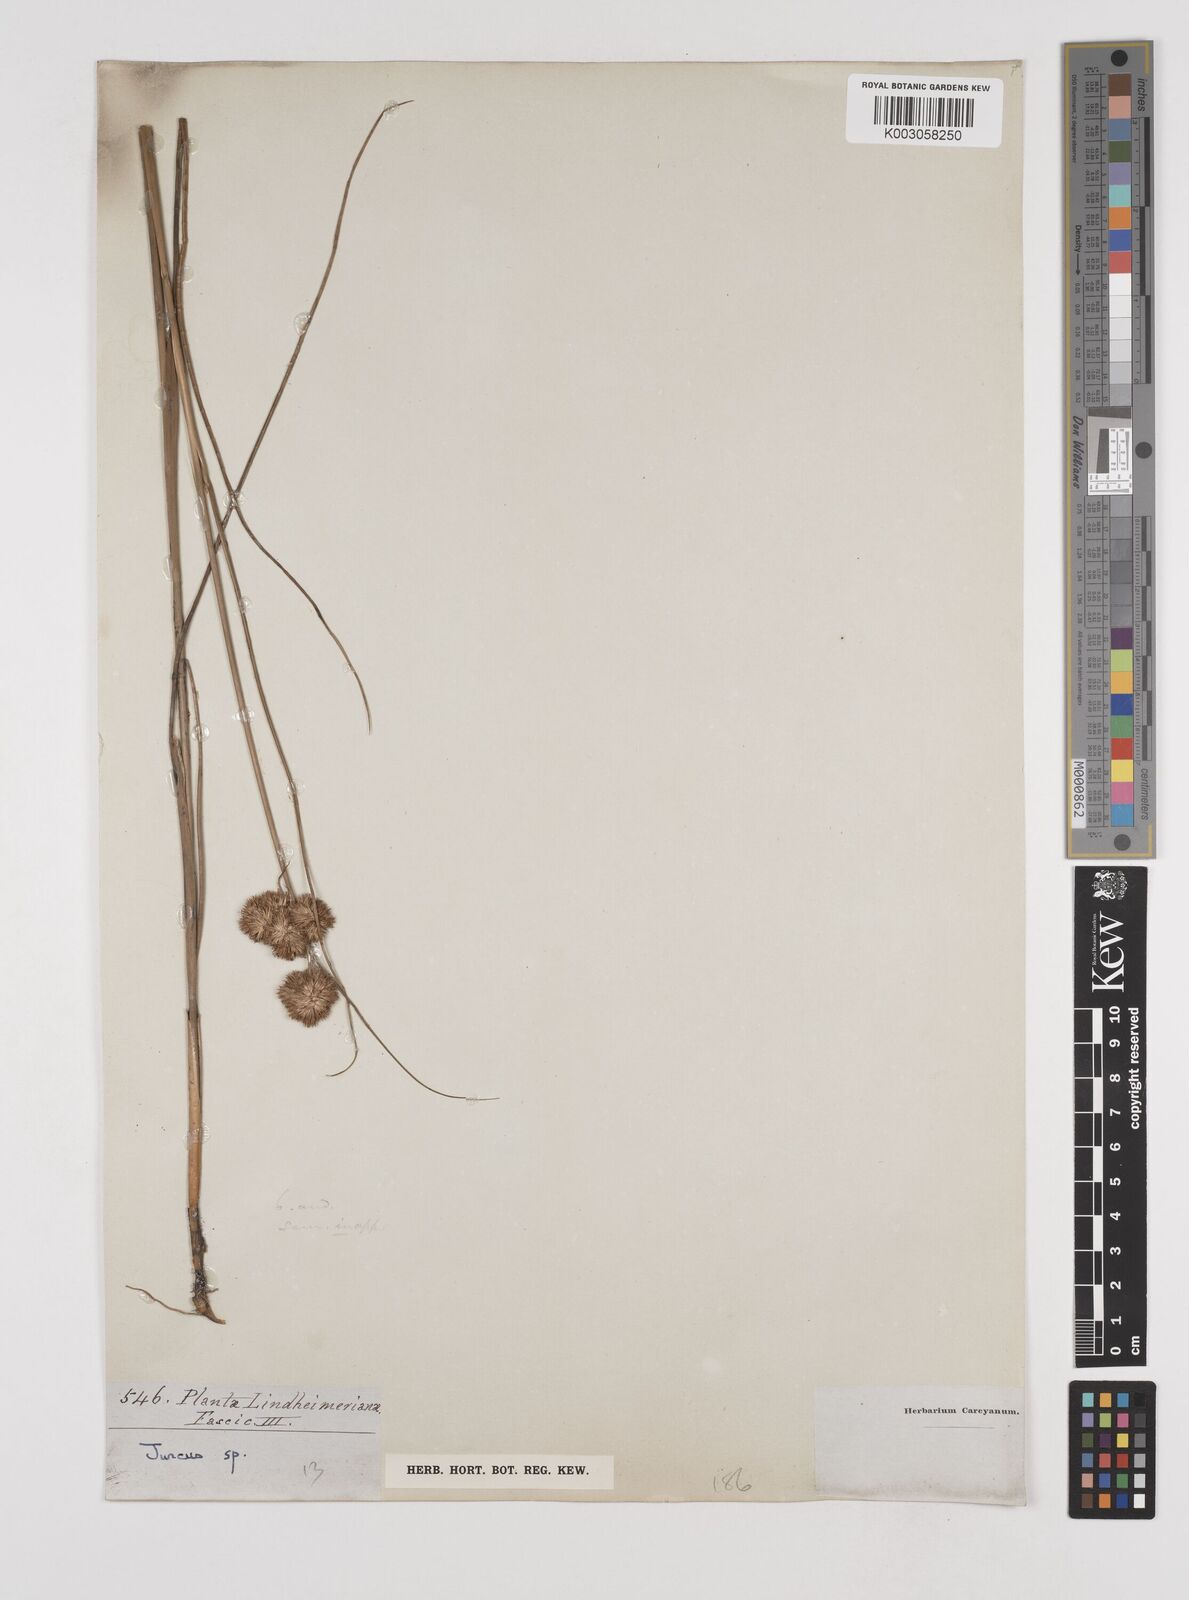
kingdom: Plantae
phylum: Tracheophyta
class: Liliopsida
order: Poales
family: Juncaceae
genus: Juncus
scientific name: Juncus
